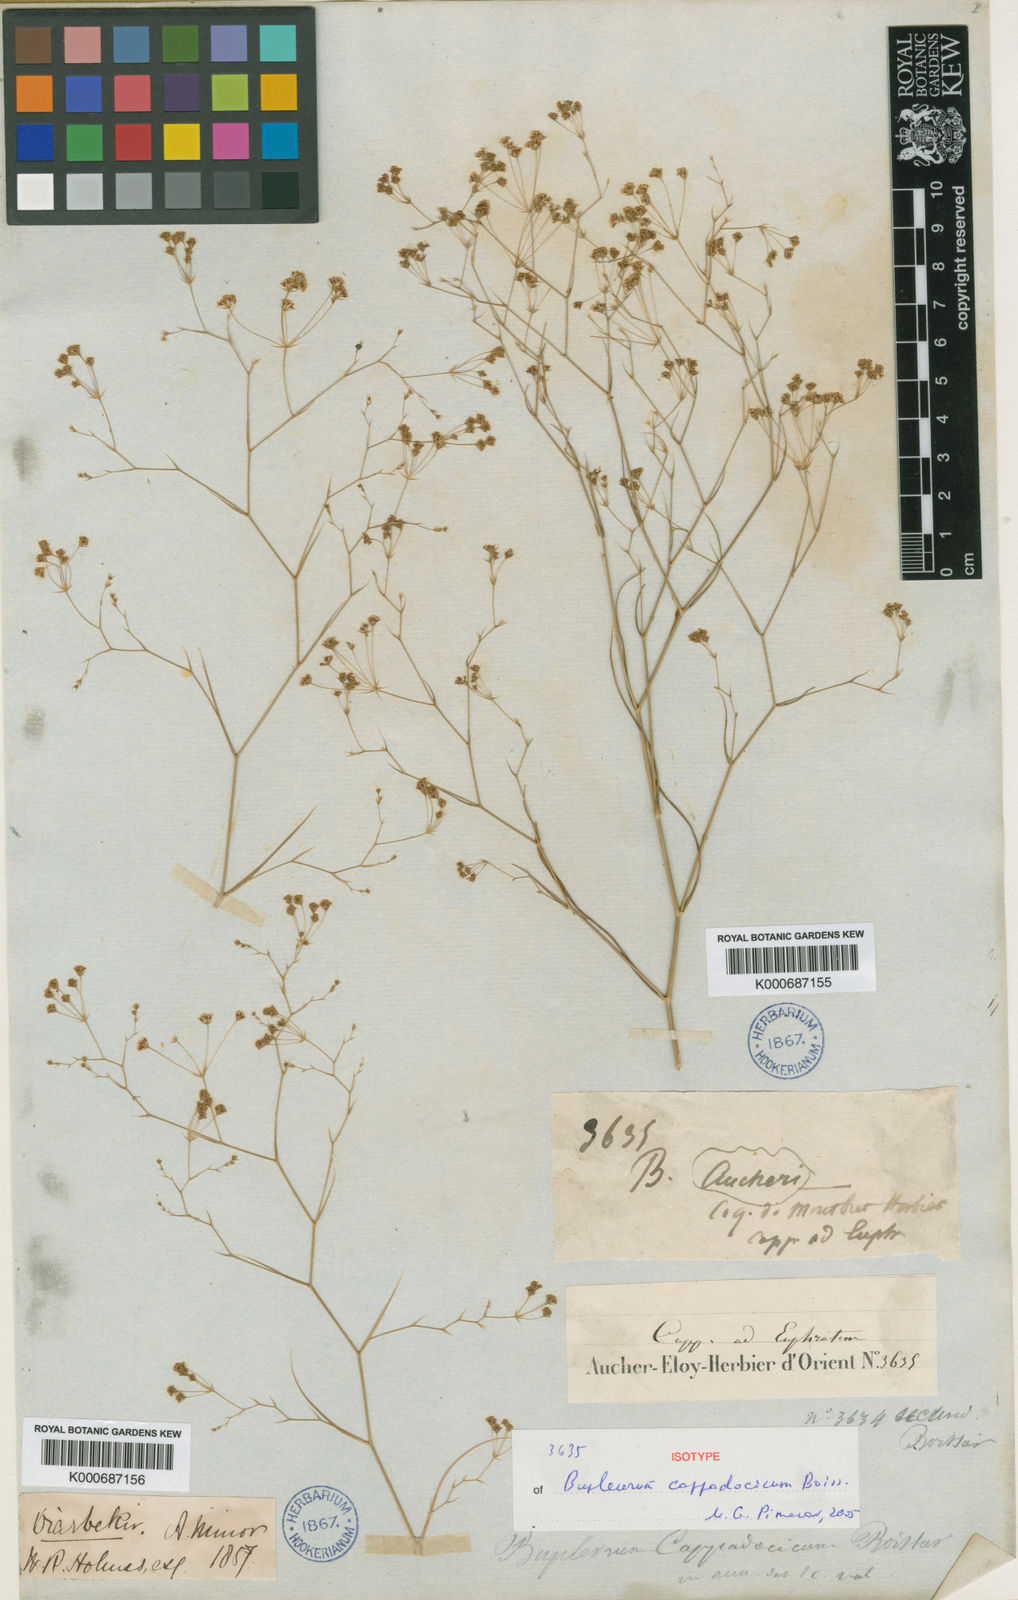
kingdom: Plantae
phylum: Tracheophyta
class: Magnoliopsida
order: Apiales
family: Apiaceae
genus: Bupleurum
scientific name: Bupleurum cappadocicum
